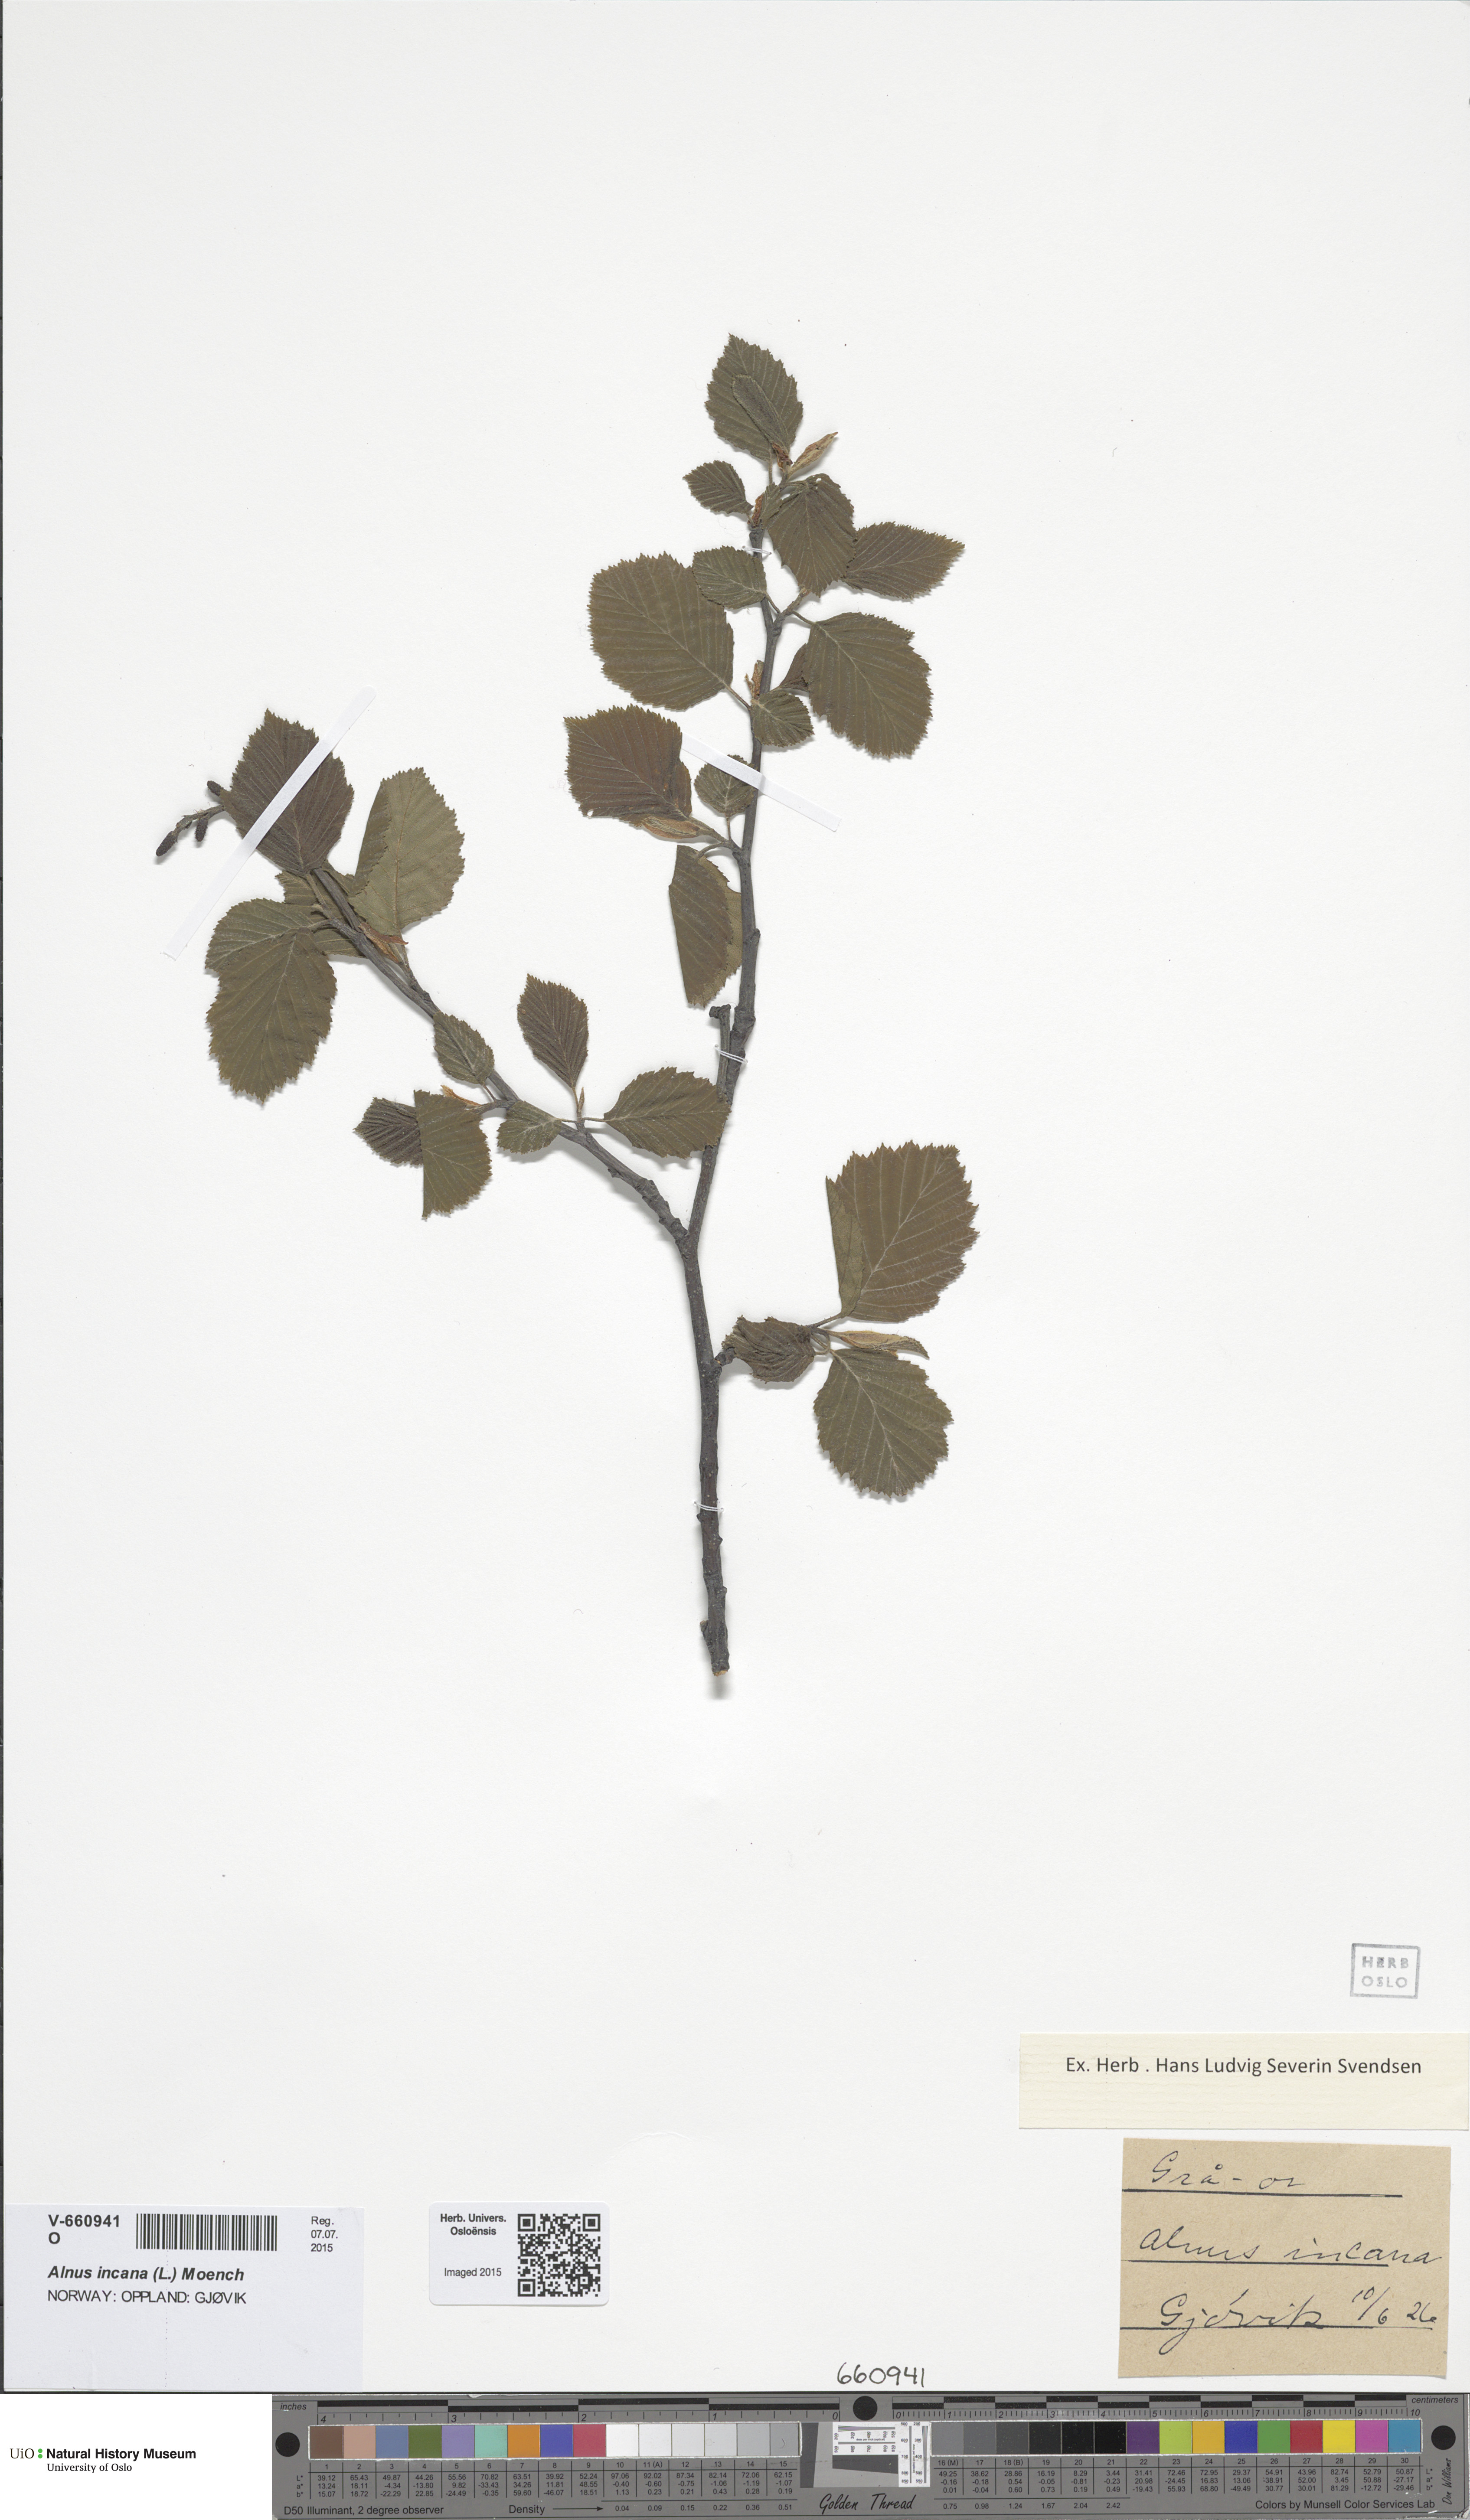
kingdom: Plantae
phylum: Tracheophyta
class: Magnoliopsida
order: Fagales
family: Betulaceae
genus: Alnus
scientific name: Alnus incana
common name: Grey alder
